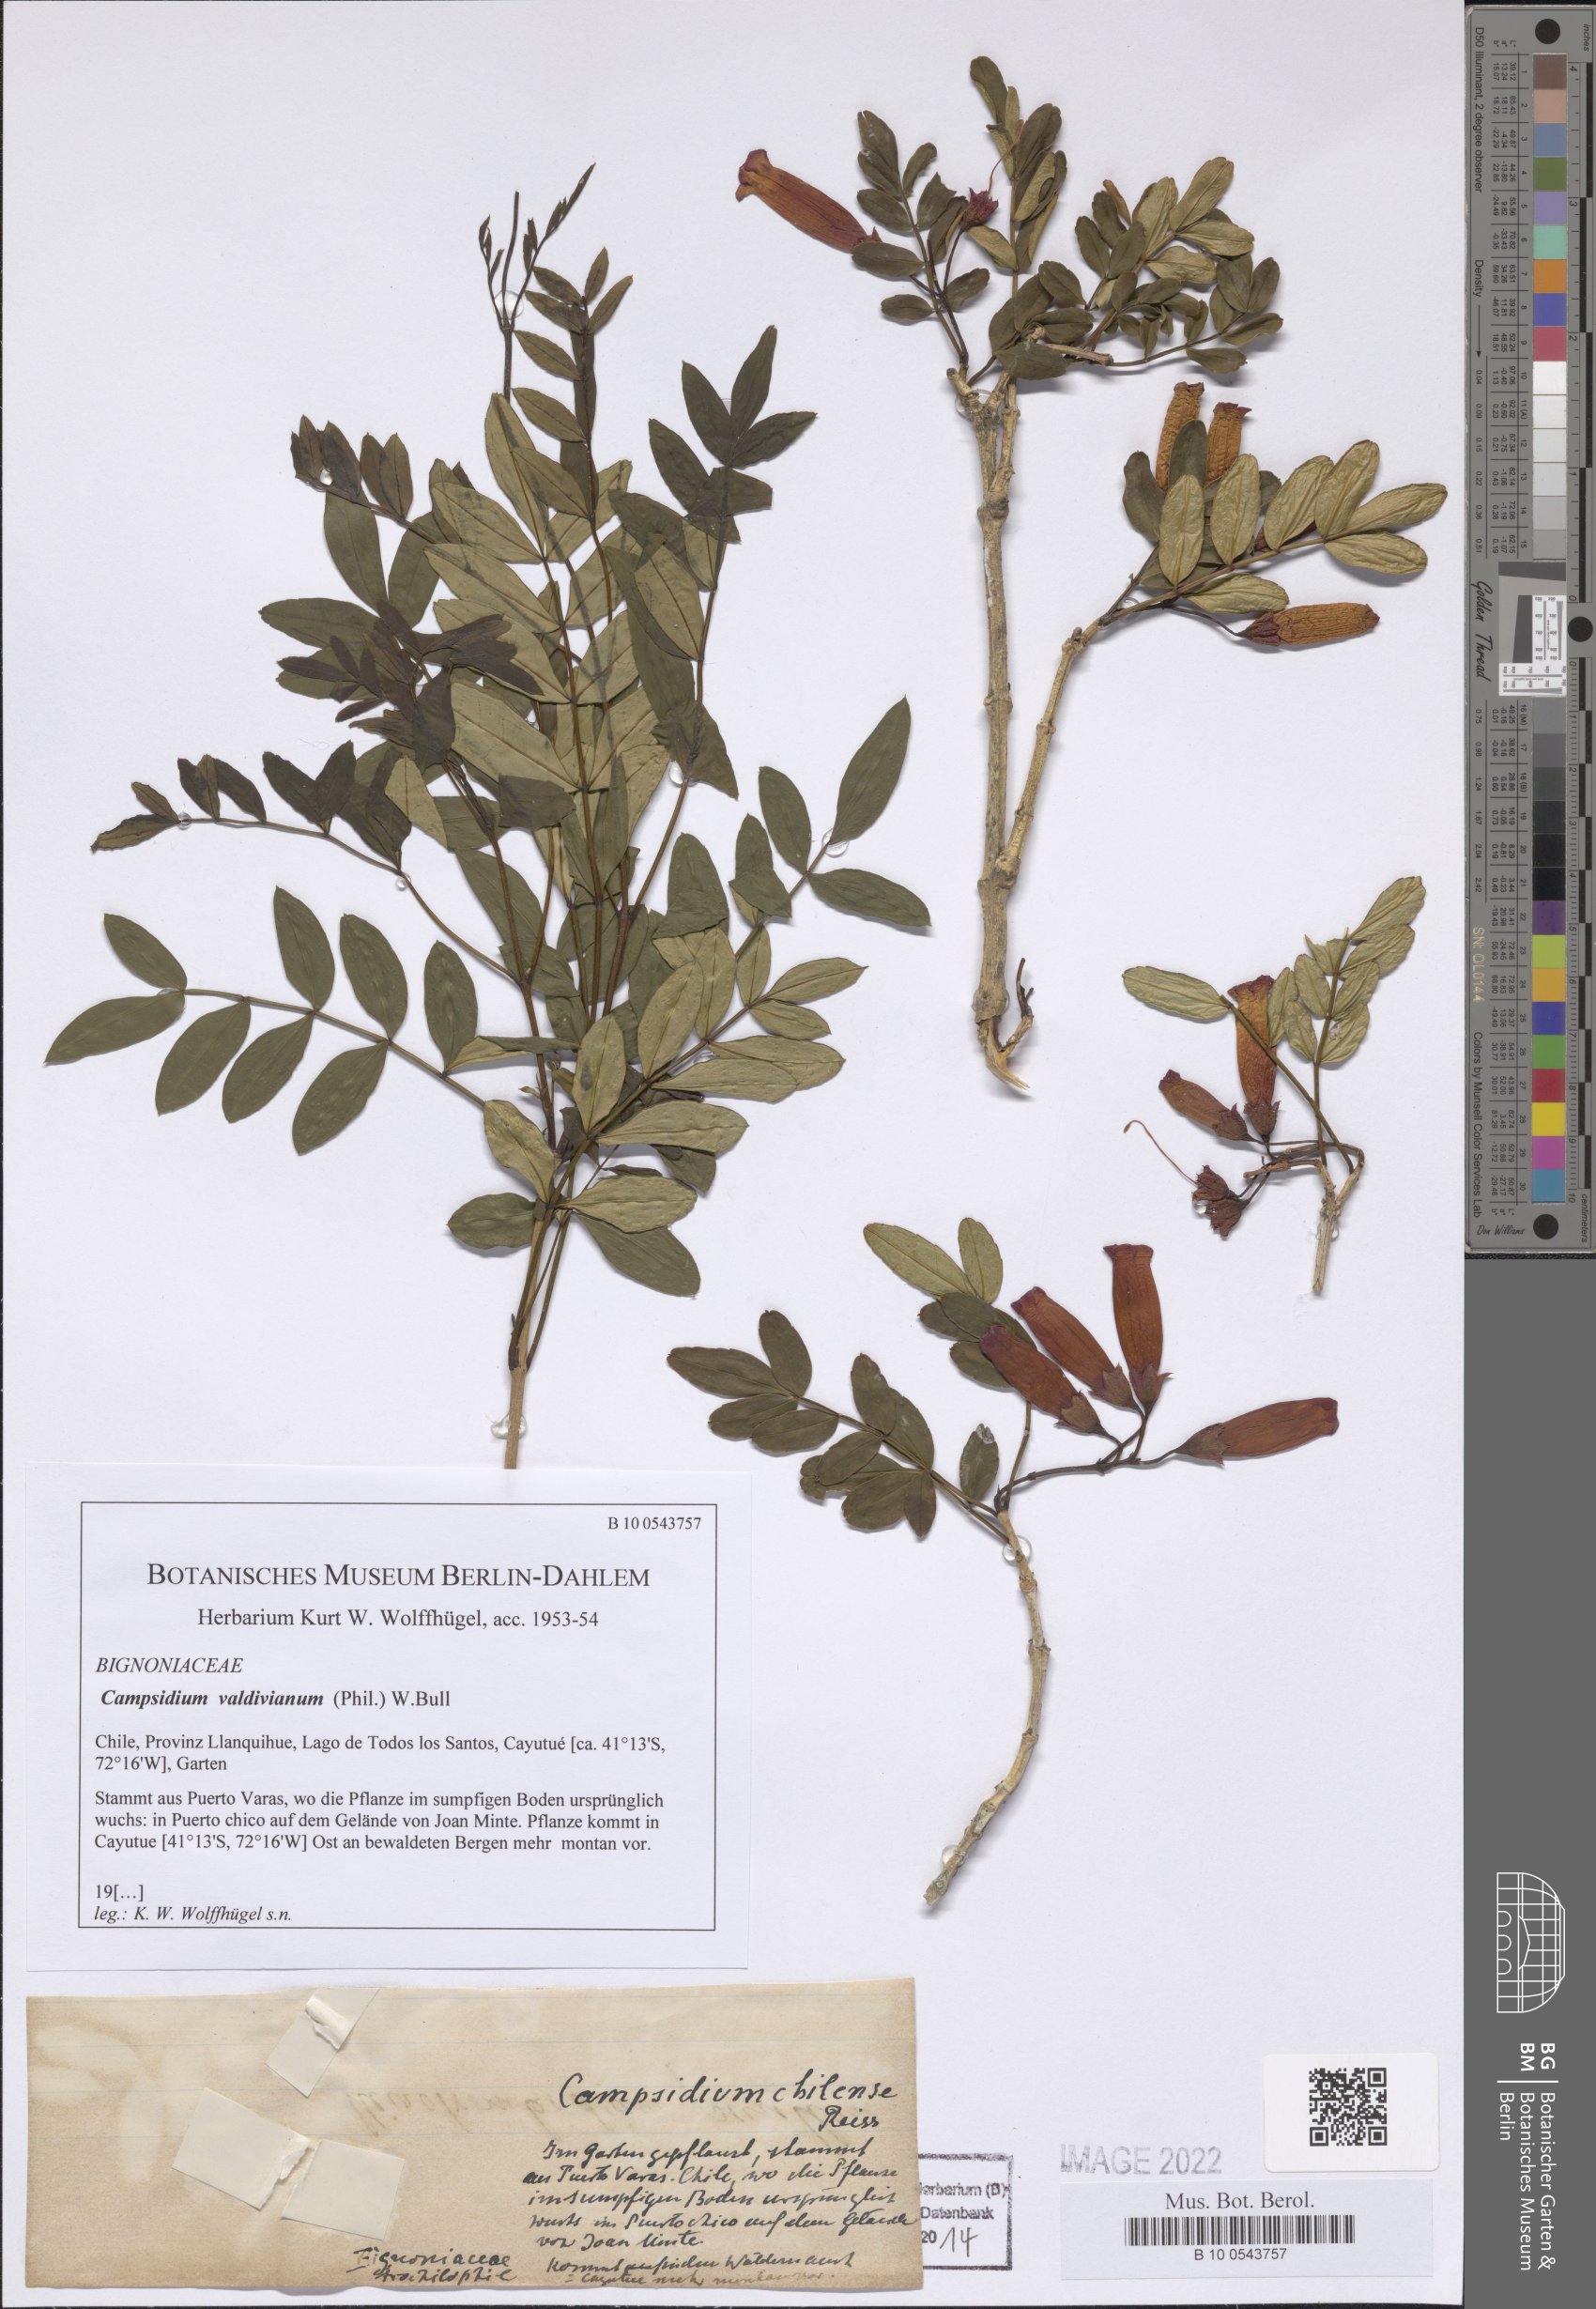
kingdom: Plantae
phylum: Tracheophyta
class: Magnoliopsida
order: Lamiales
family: Bignoniaceae
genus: Campsidium
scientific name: Campsidium valdivianum
